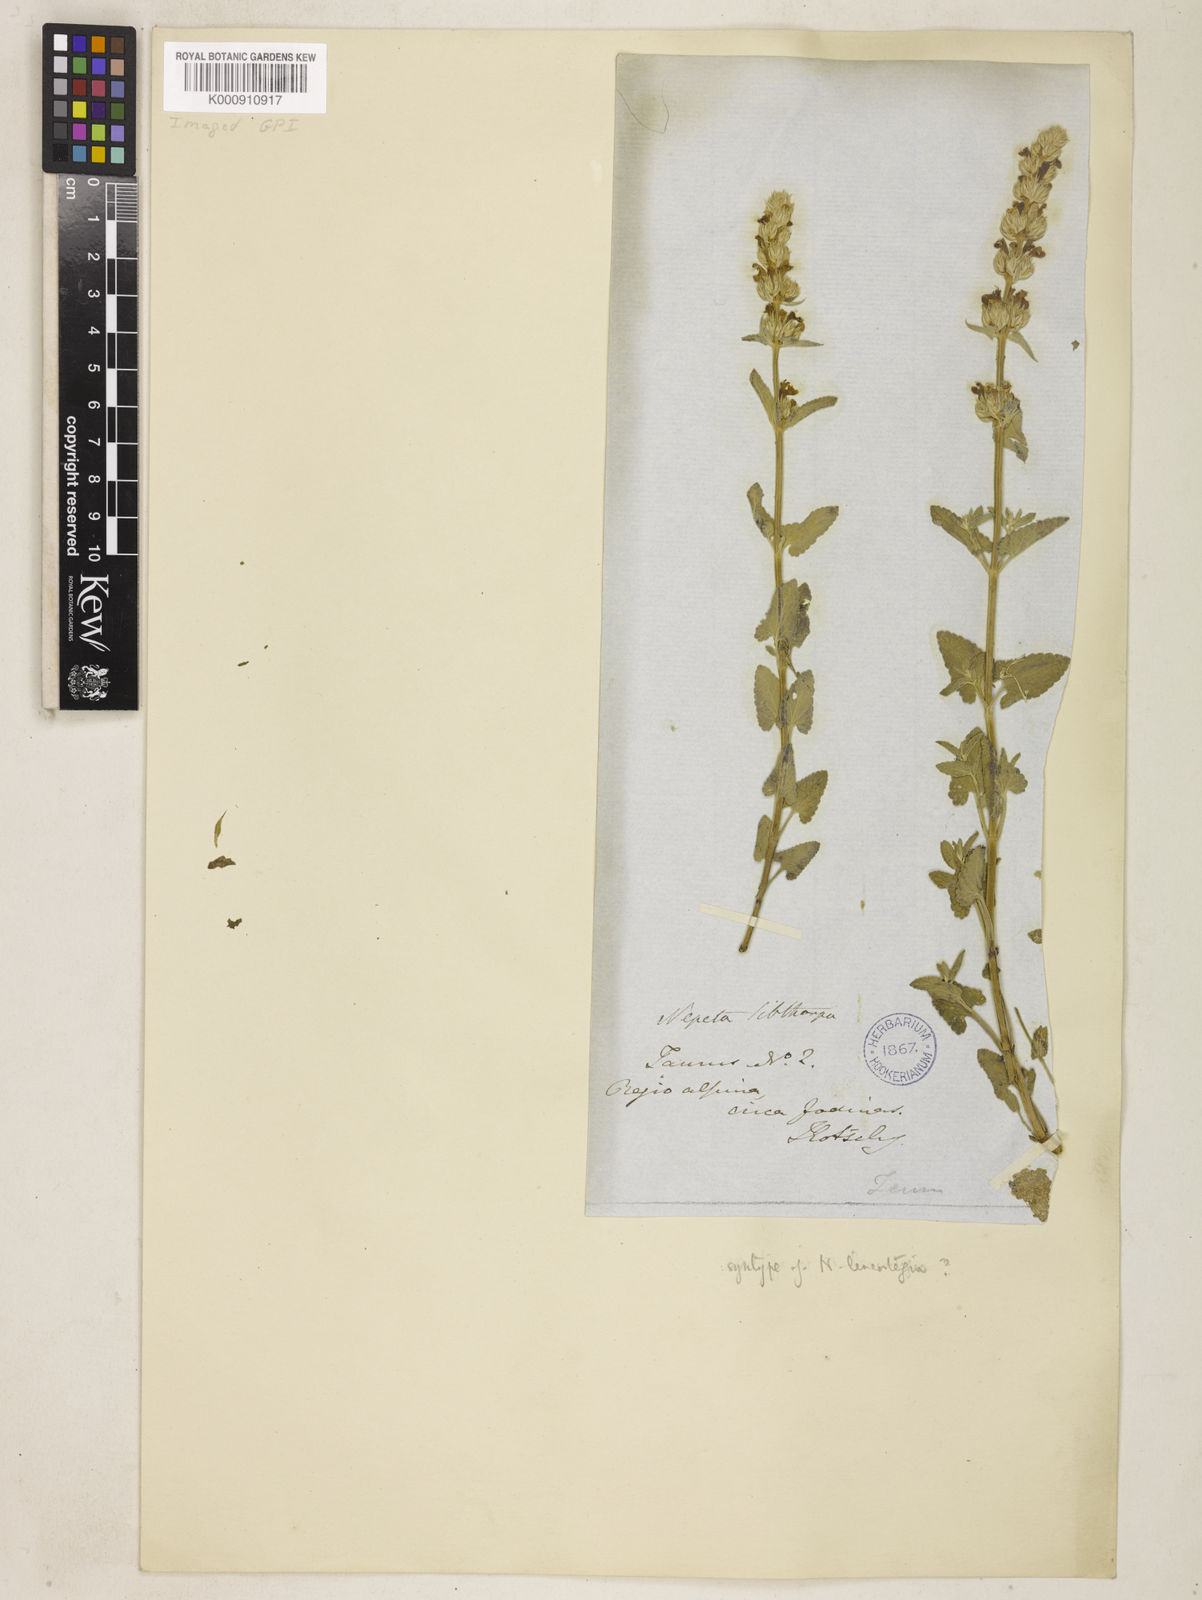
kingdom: Plantae
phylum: Tracheophyta
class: Magnoliopsida
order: Lamiales
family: Lamiaceae
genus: Nepeta
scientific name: Nepeta italica
